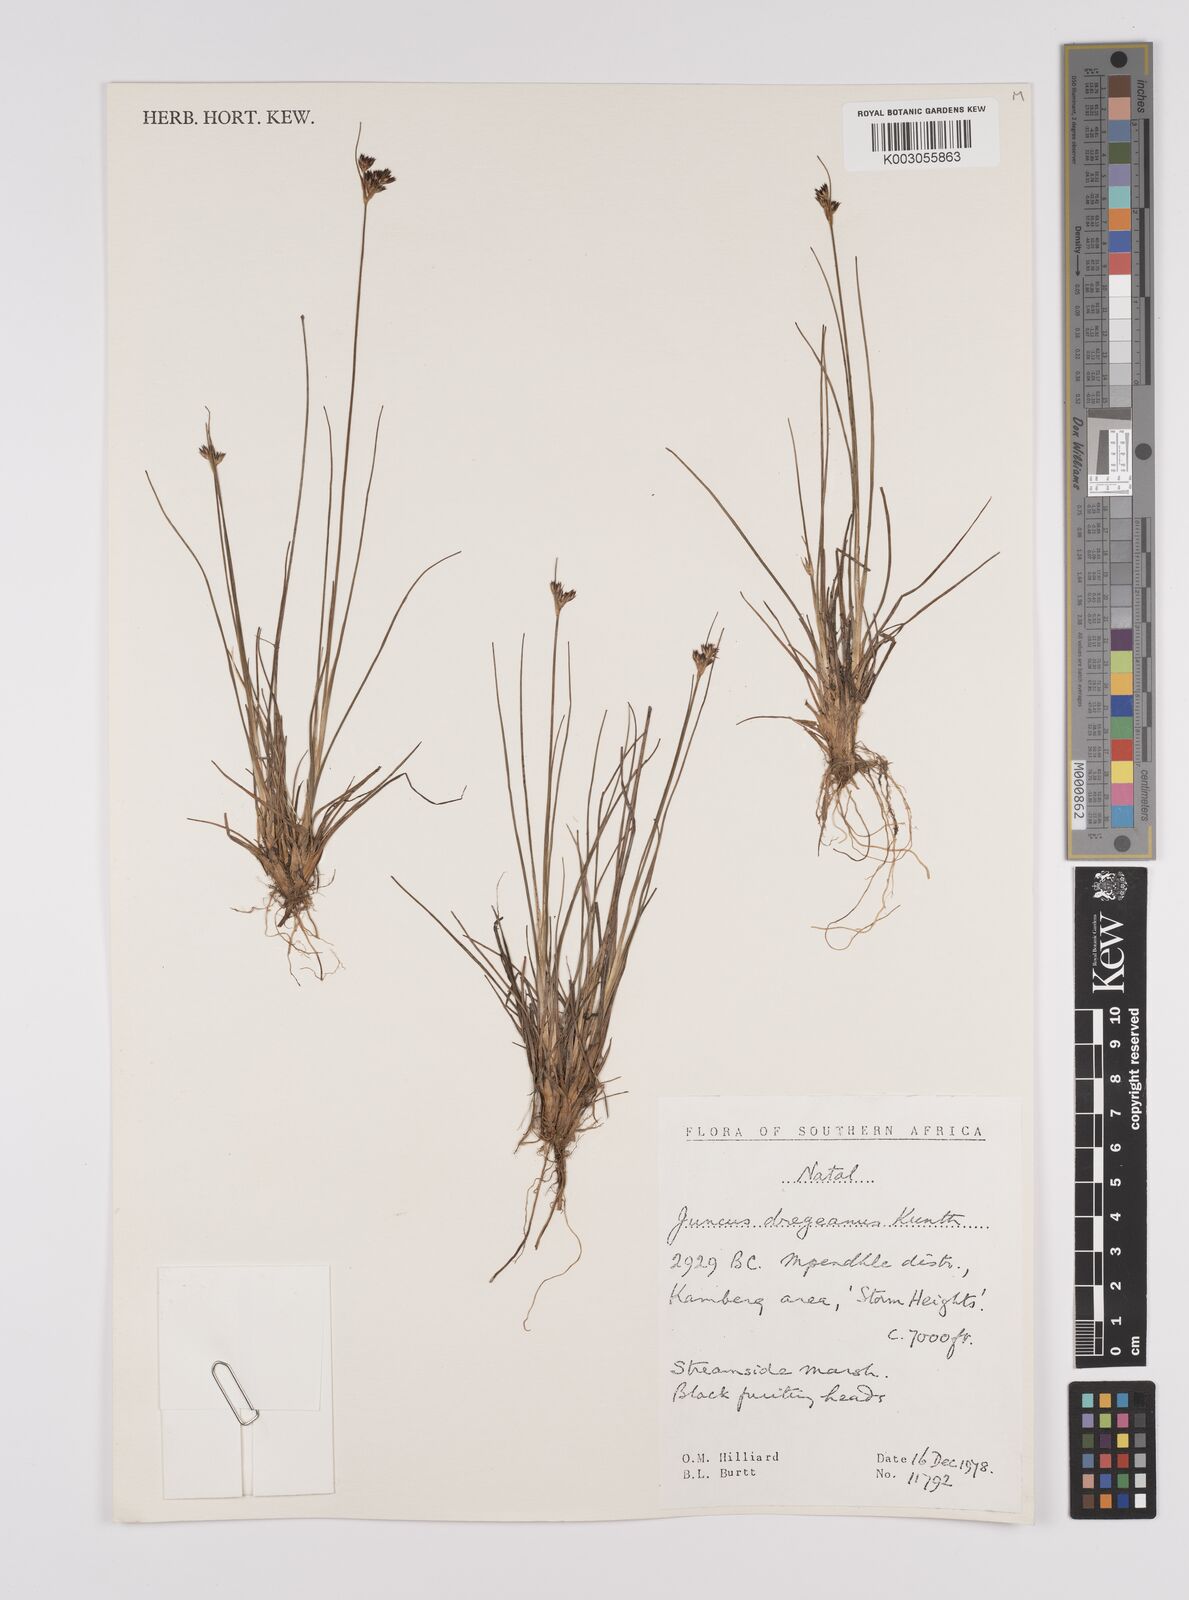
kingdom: Plantae
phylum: Tracheophyta
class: Liliopsida
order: Poales
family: Juncaceae
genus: Juncus
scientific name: Juncus dregeanus
